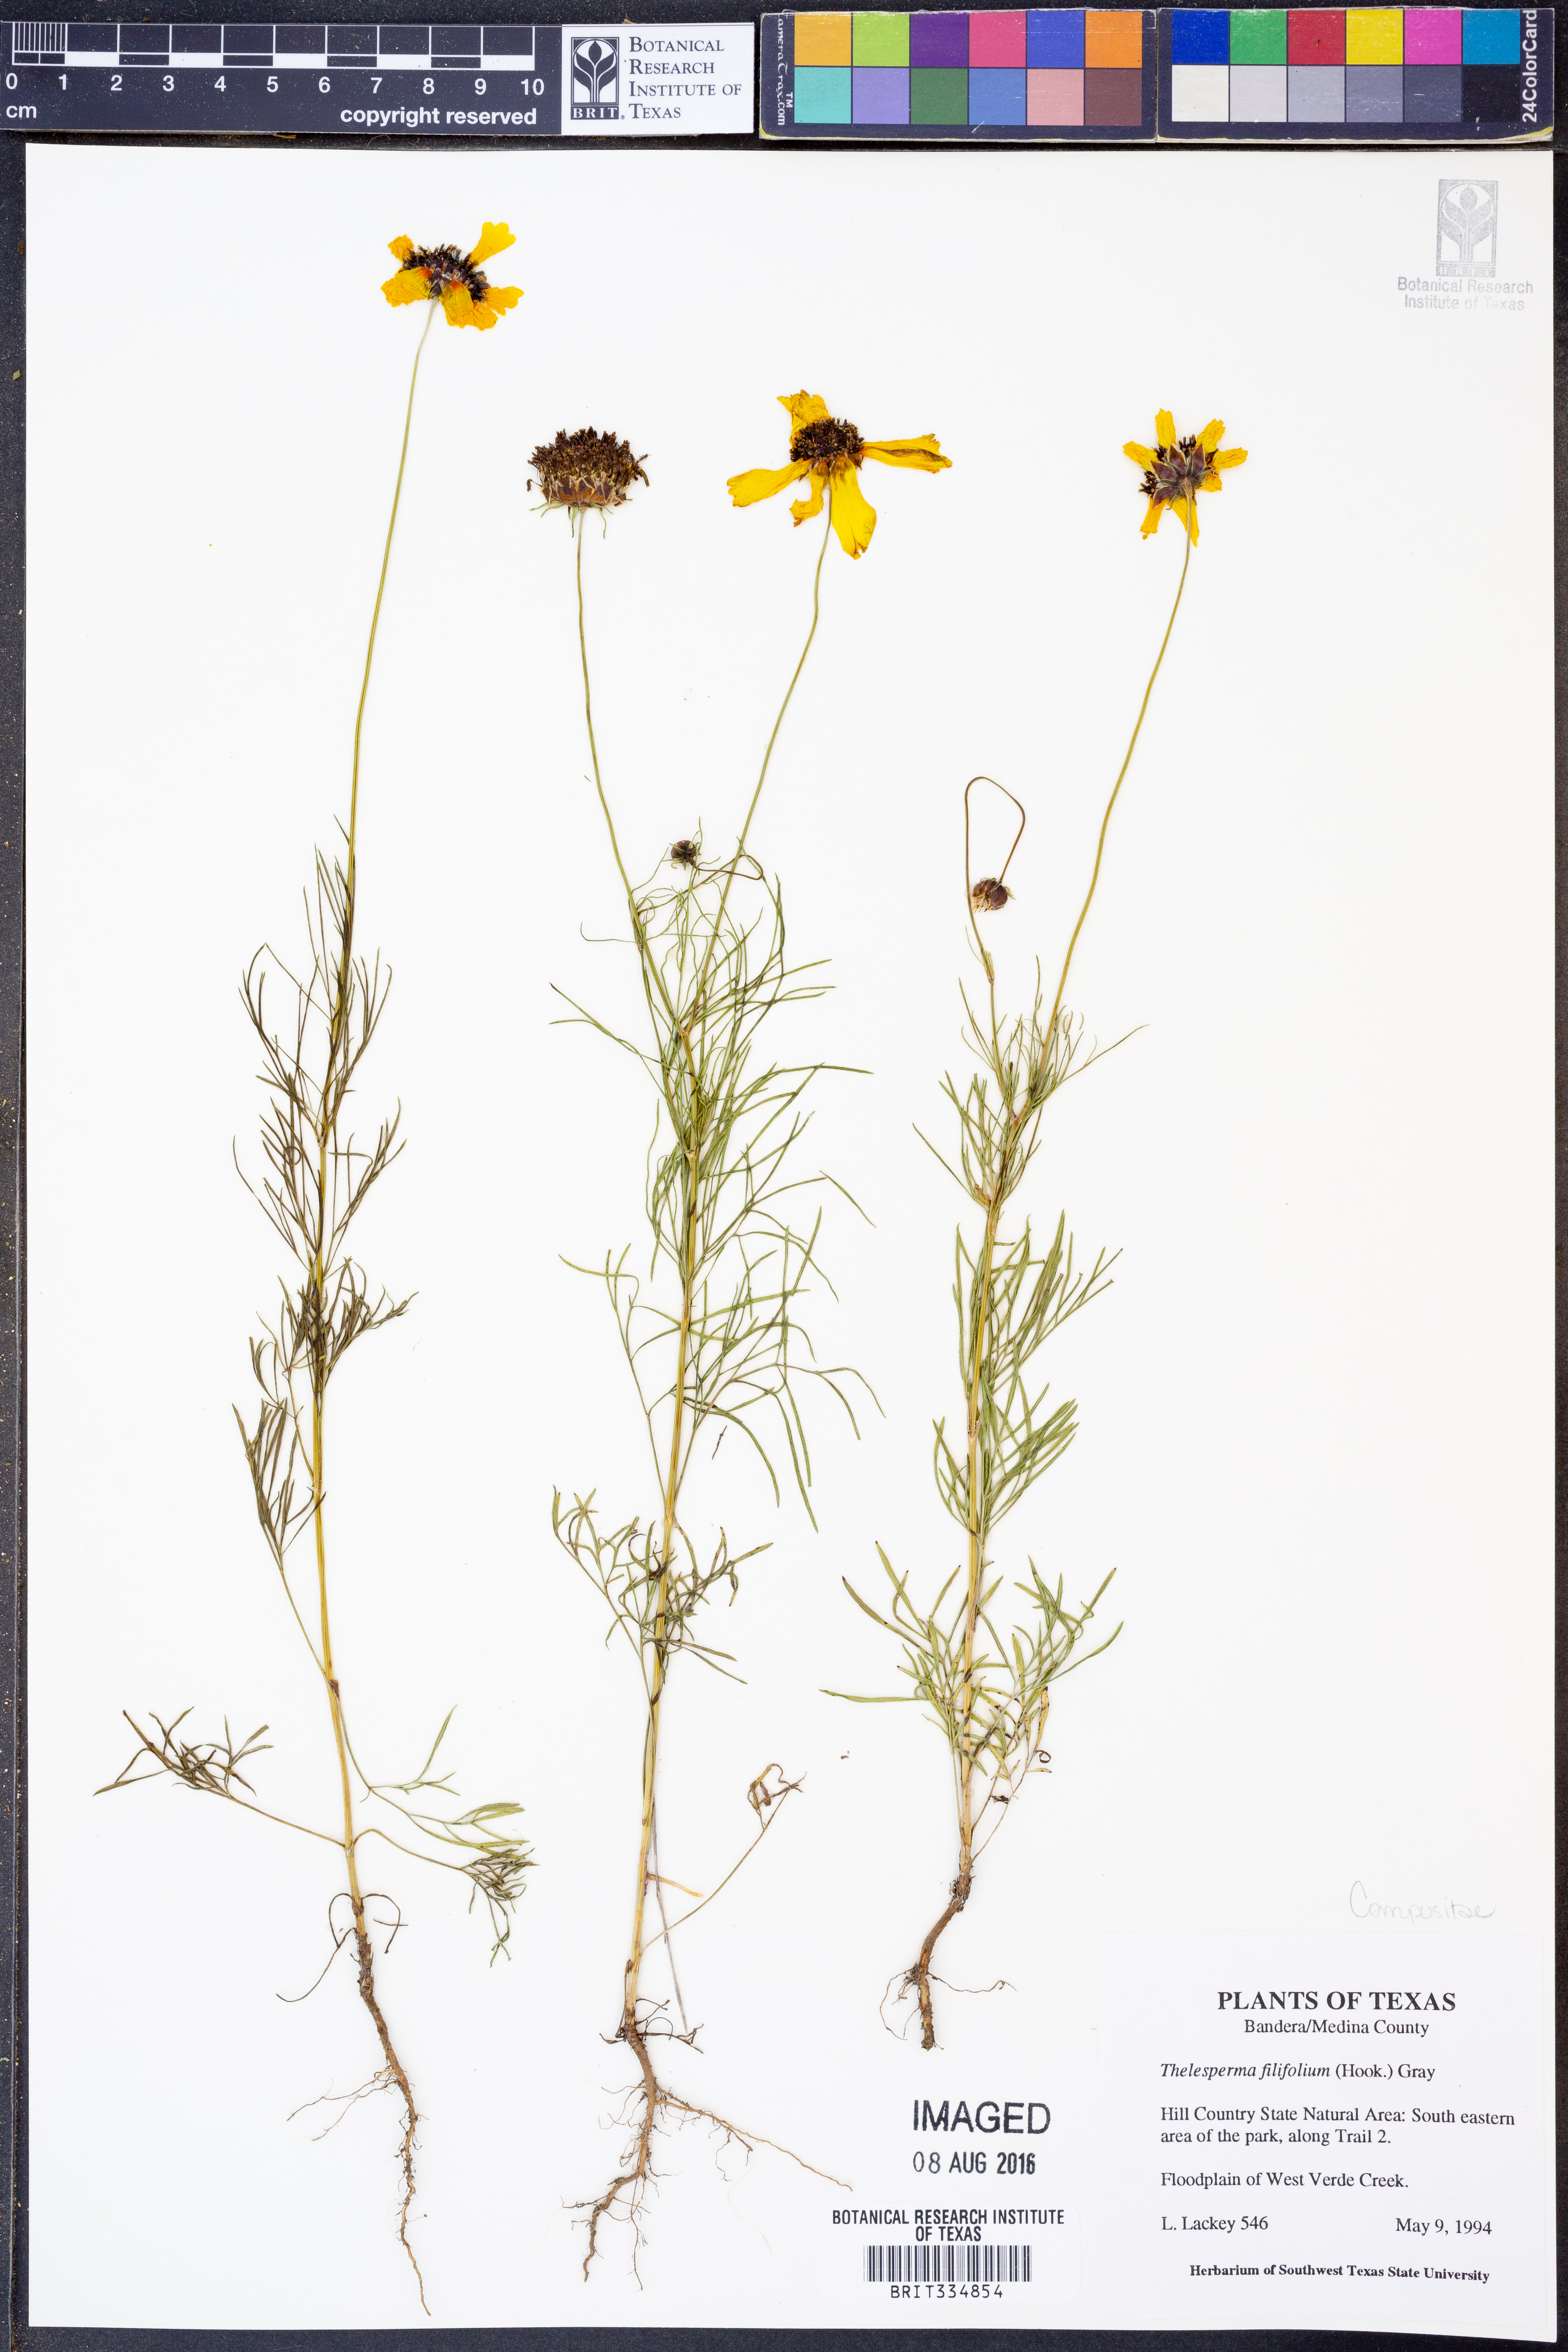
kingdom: Plantae
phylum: Tracheophyta
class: Magnoliopsida
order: Asterales
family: Asteraceae
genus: Thelesperma
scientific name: Thelesperma filifolium
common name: Stiff greenthread
